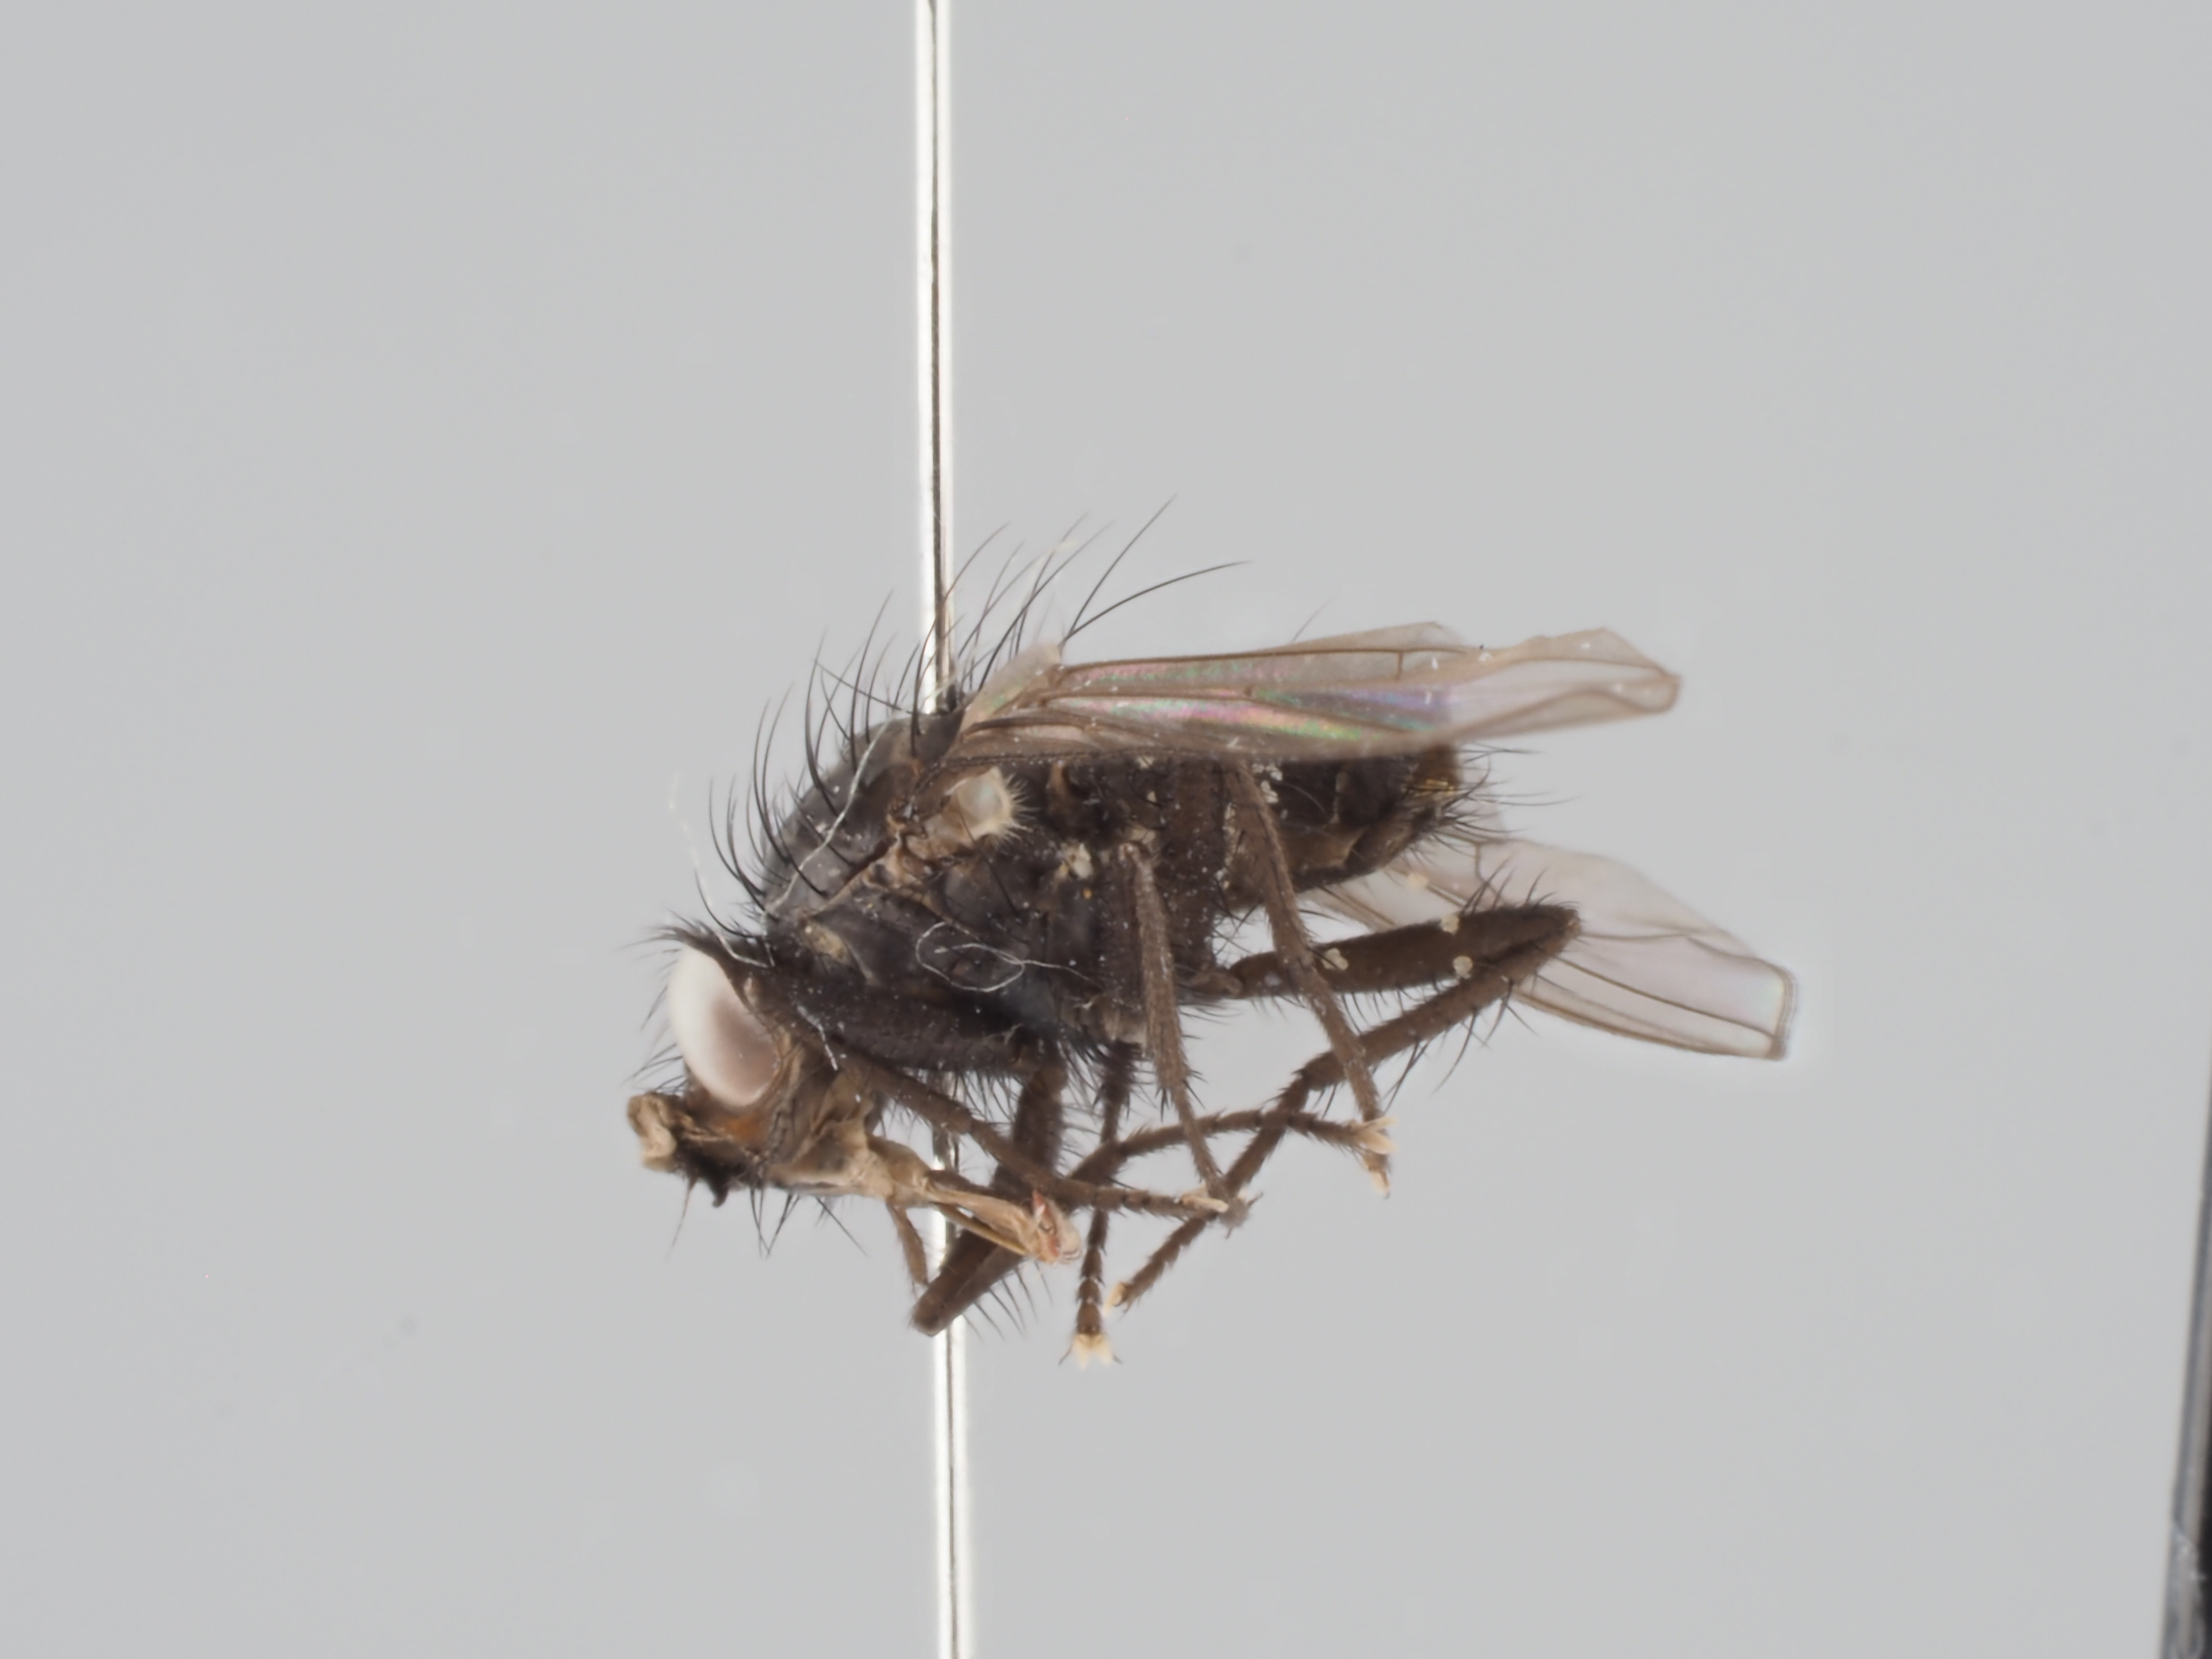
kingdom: Animalia
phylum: Arthropoda
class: Insecta
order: Diptera
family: Anthomyiidae
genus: Heterostylodes
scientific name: Heterostylodes pilifera
